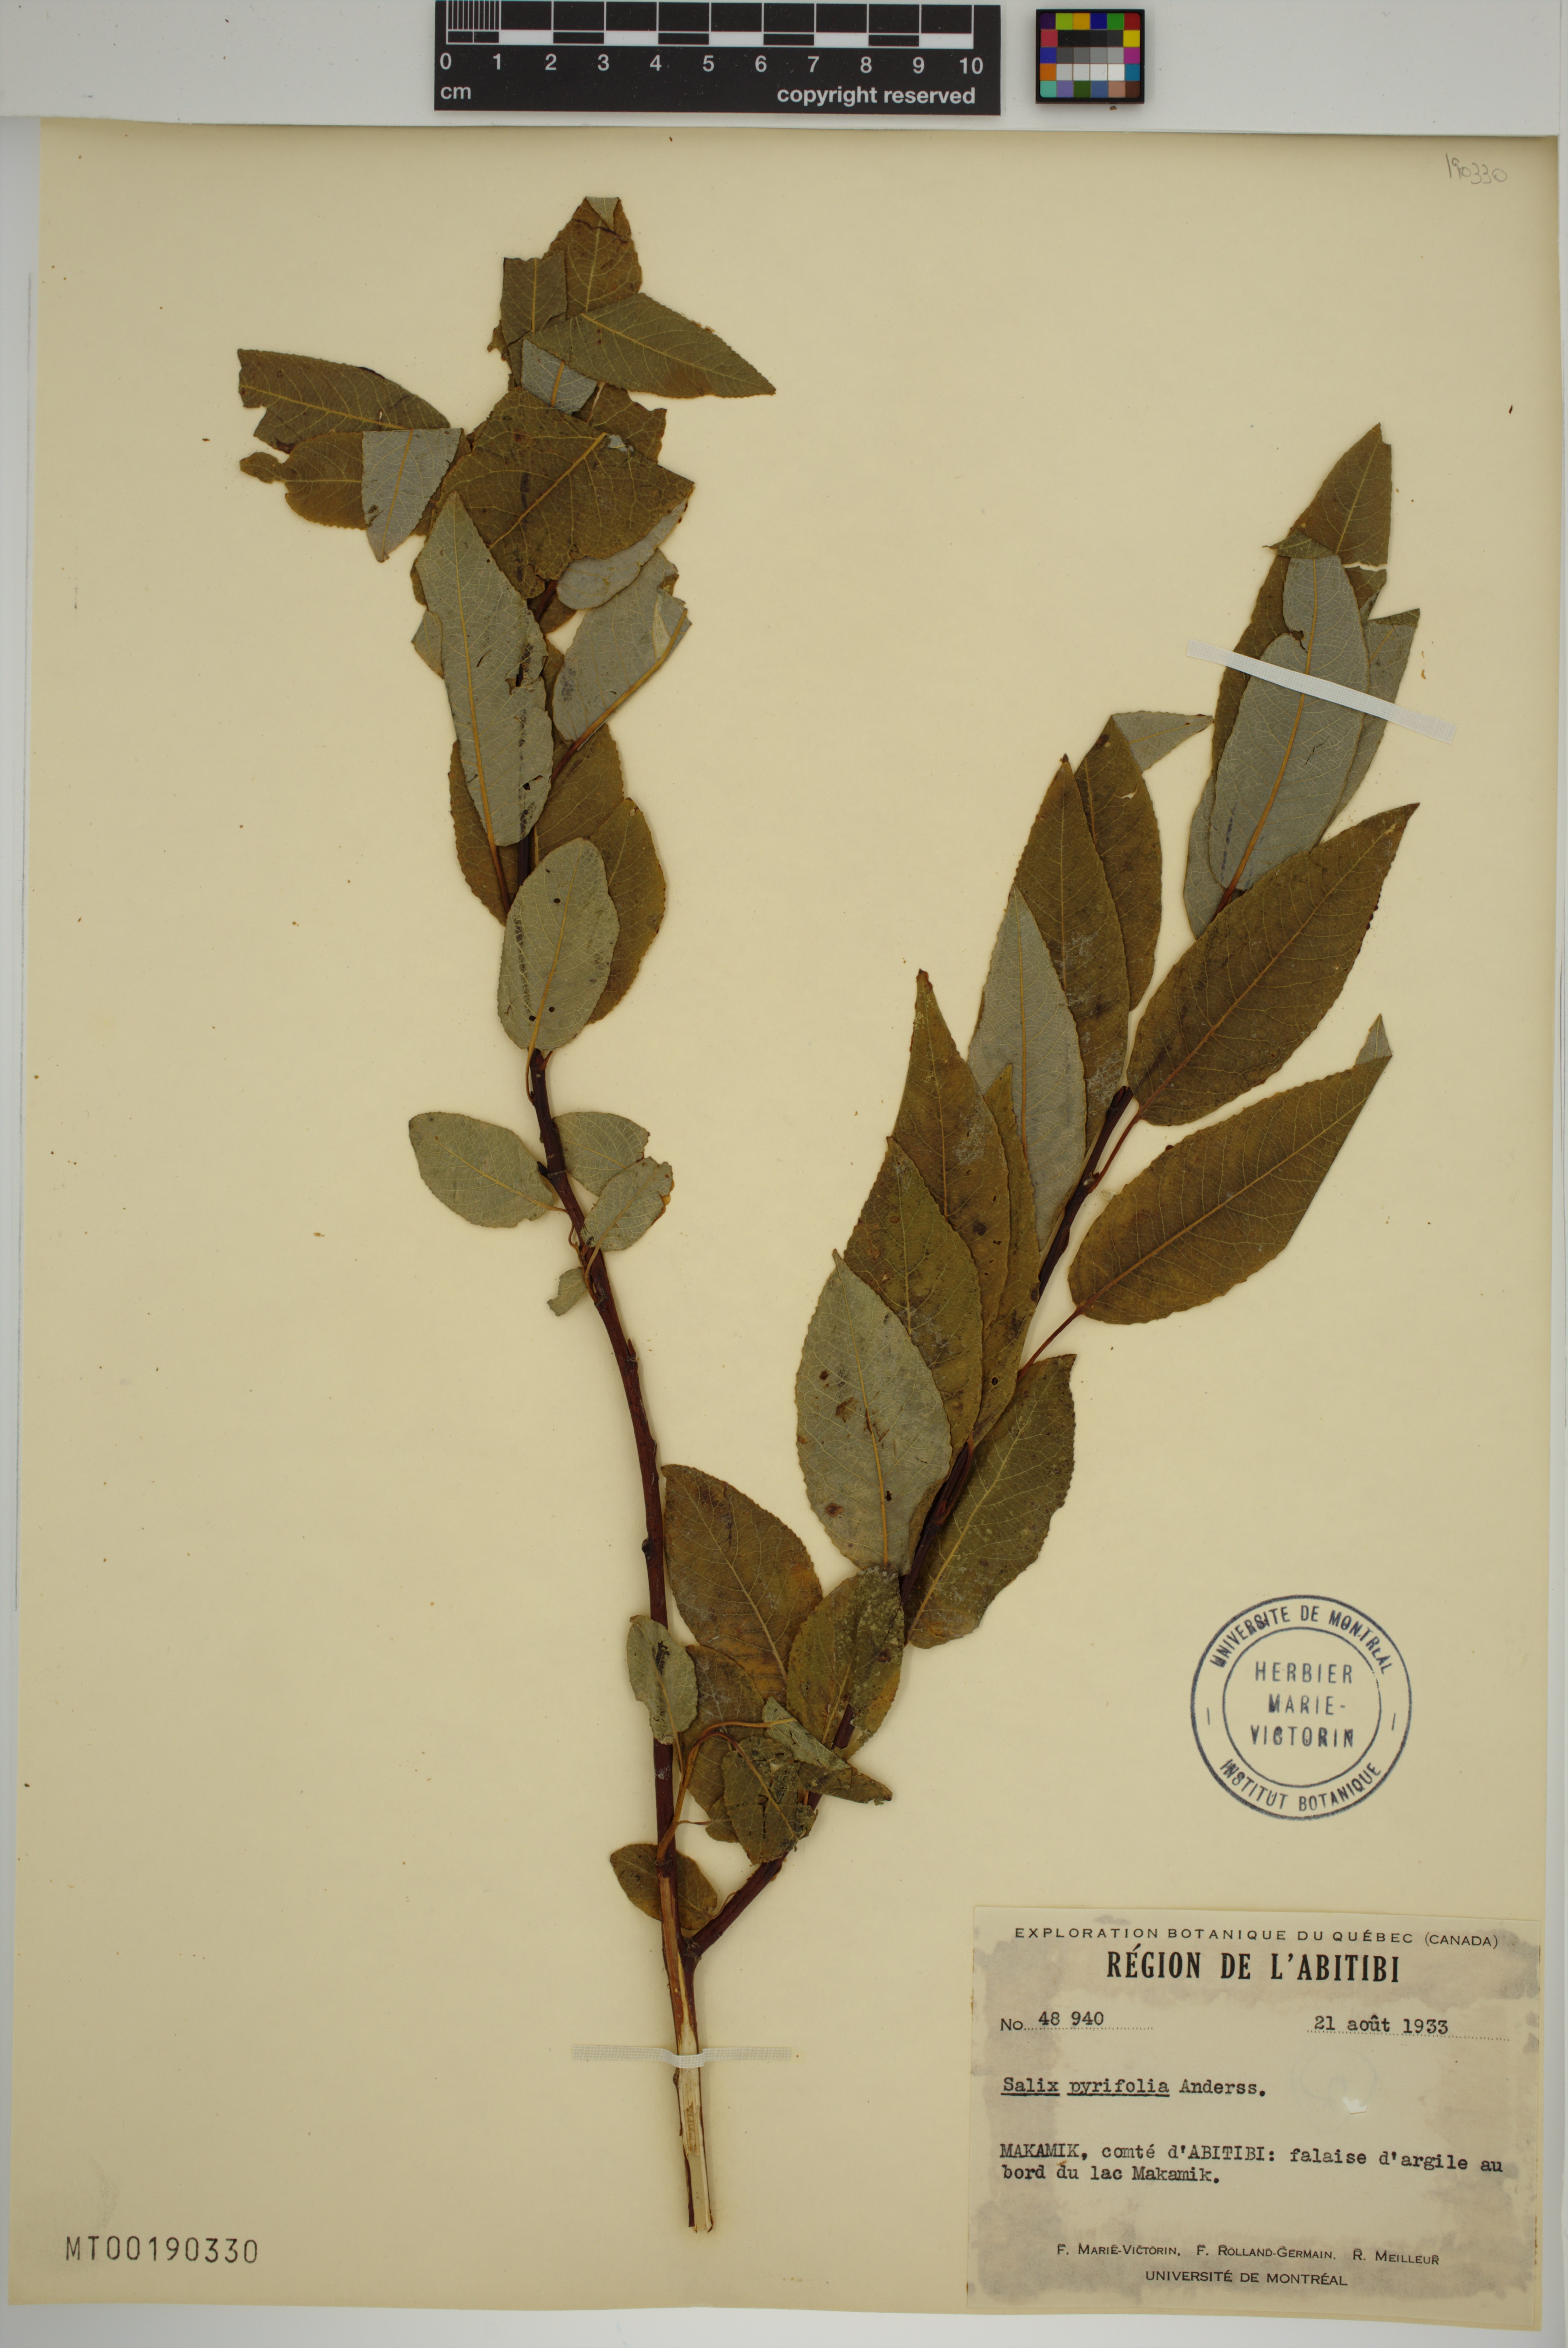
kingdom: Plantae
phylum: Tracheophyta
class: Magnoliopsida
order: Malpighiales
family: Salicaceae
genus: Salix
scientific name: Salix pyrifolia
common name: Balsam willow
